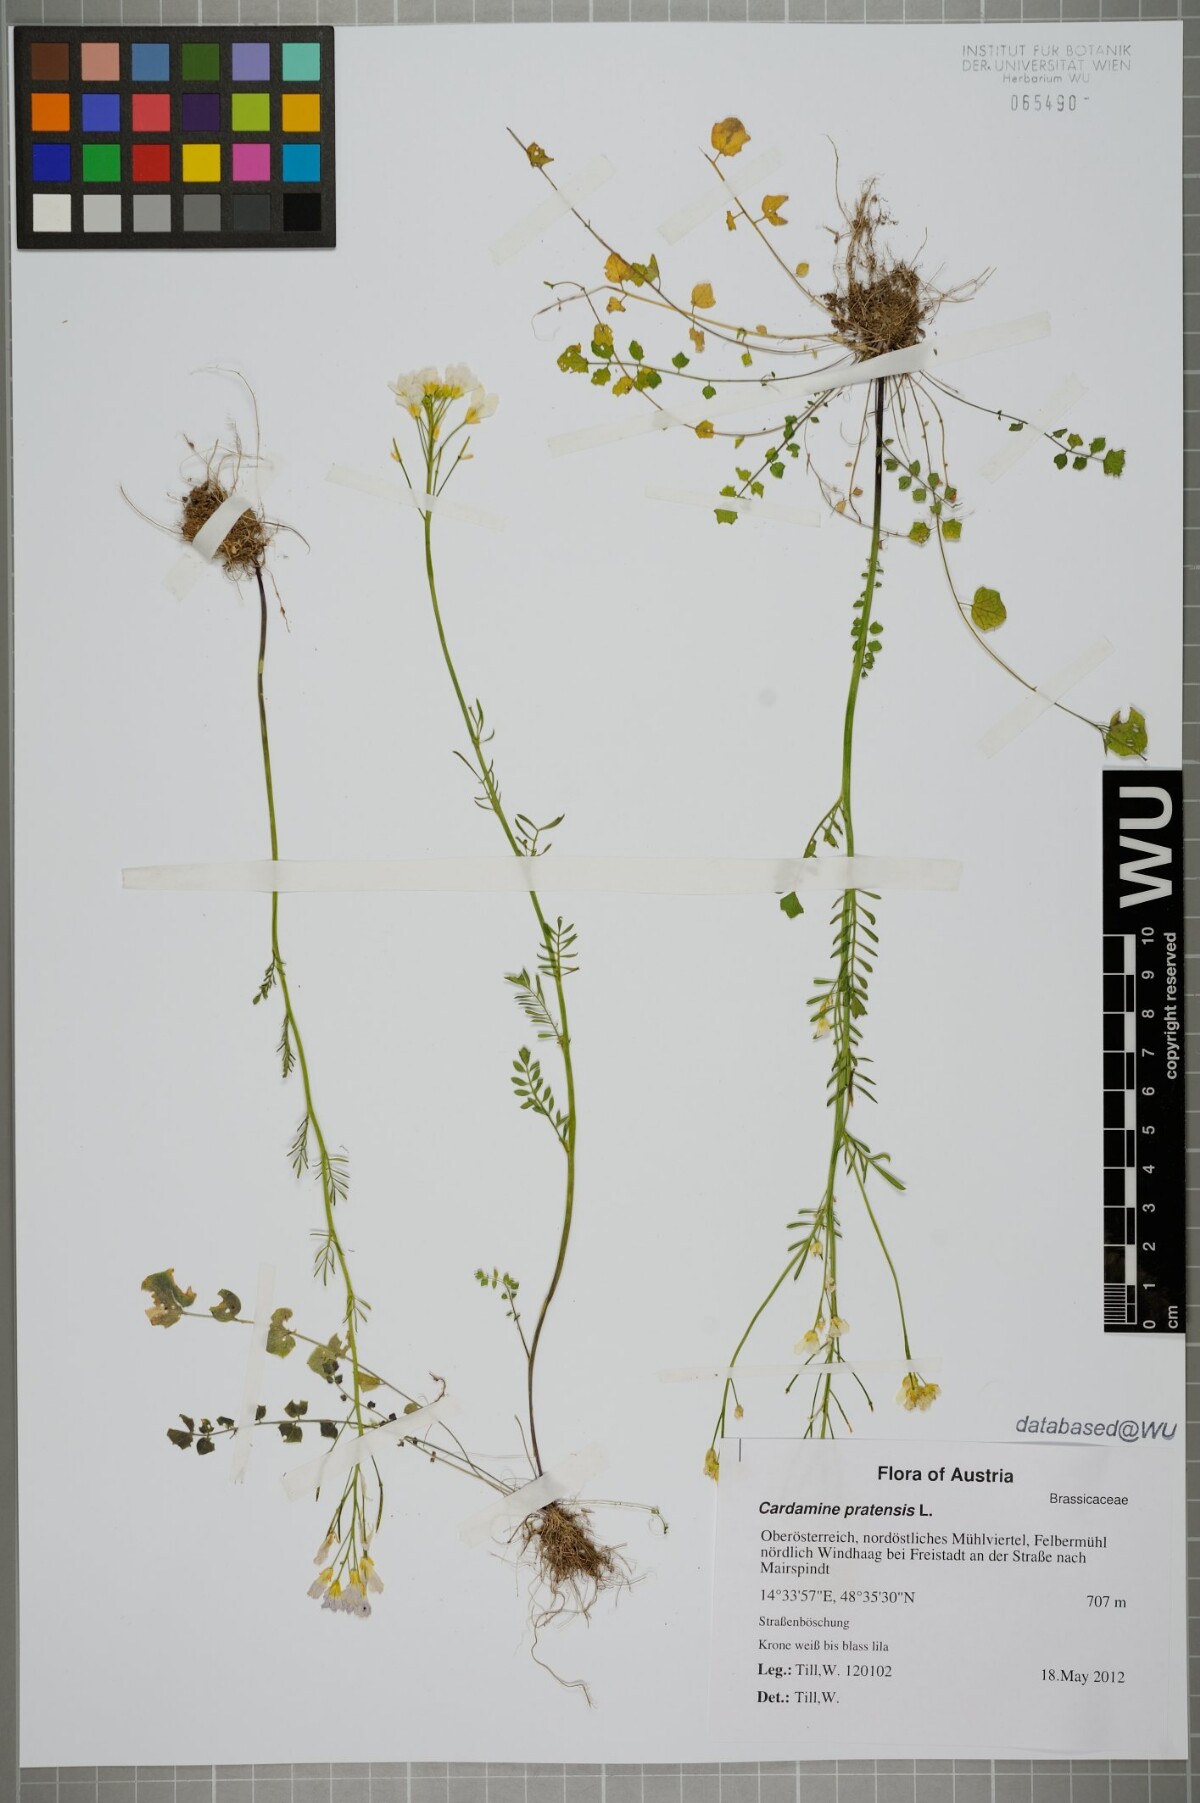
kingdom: Plantae
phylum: Tracheophyta
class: Magnoliopsida
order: Brassicales
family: Brassicaceae
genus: Cardamine
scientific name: Cardamine pratensis
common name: Cuckoo flower
